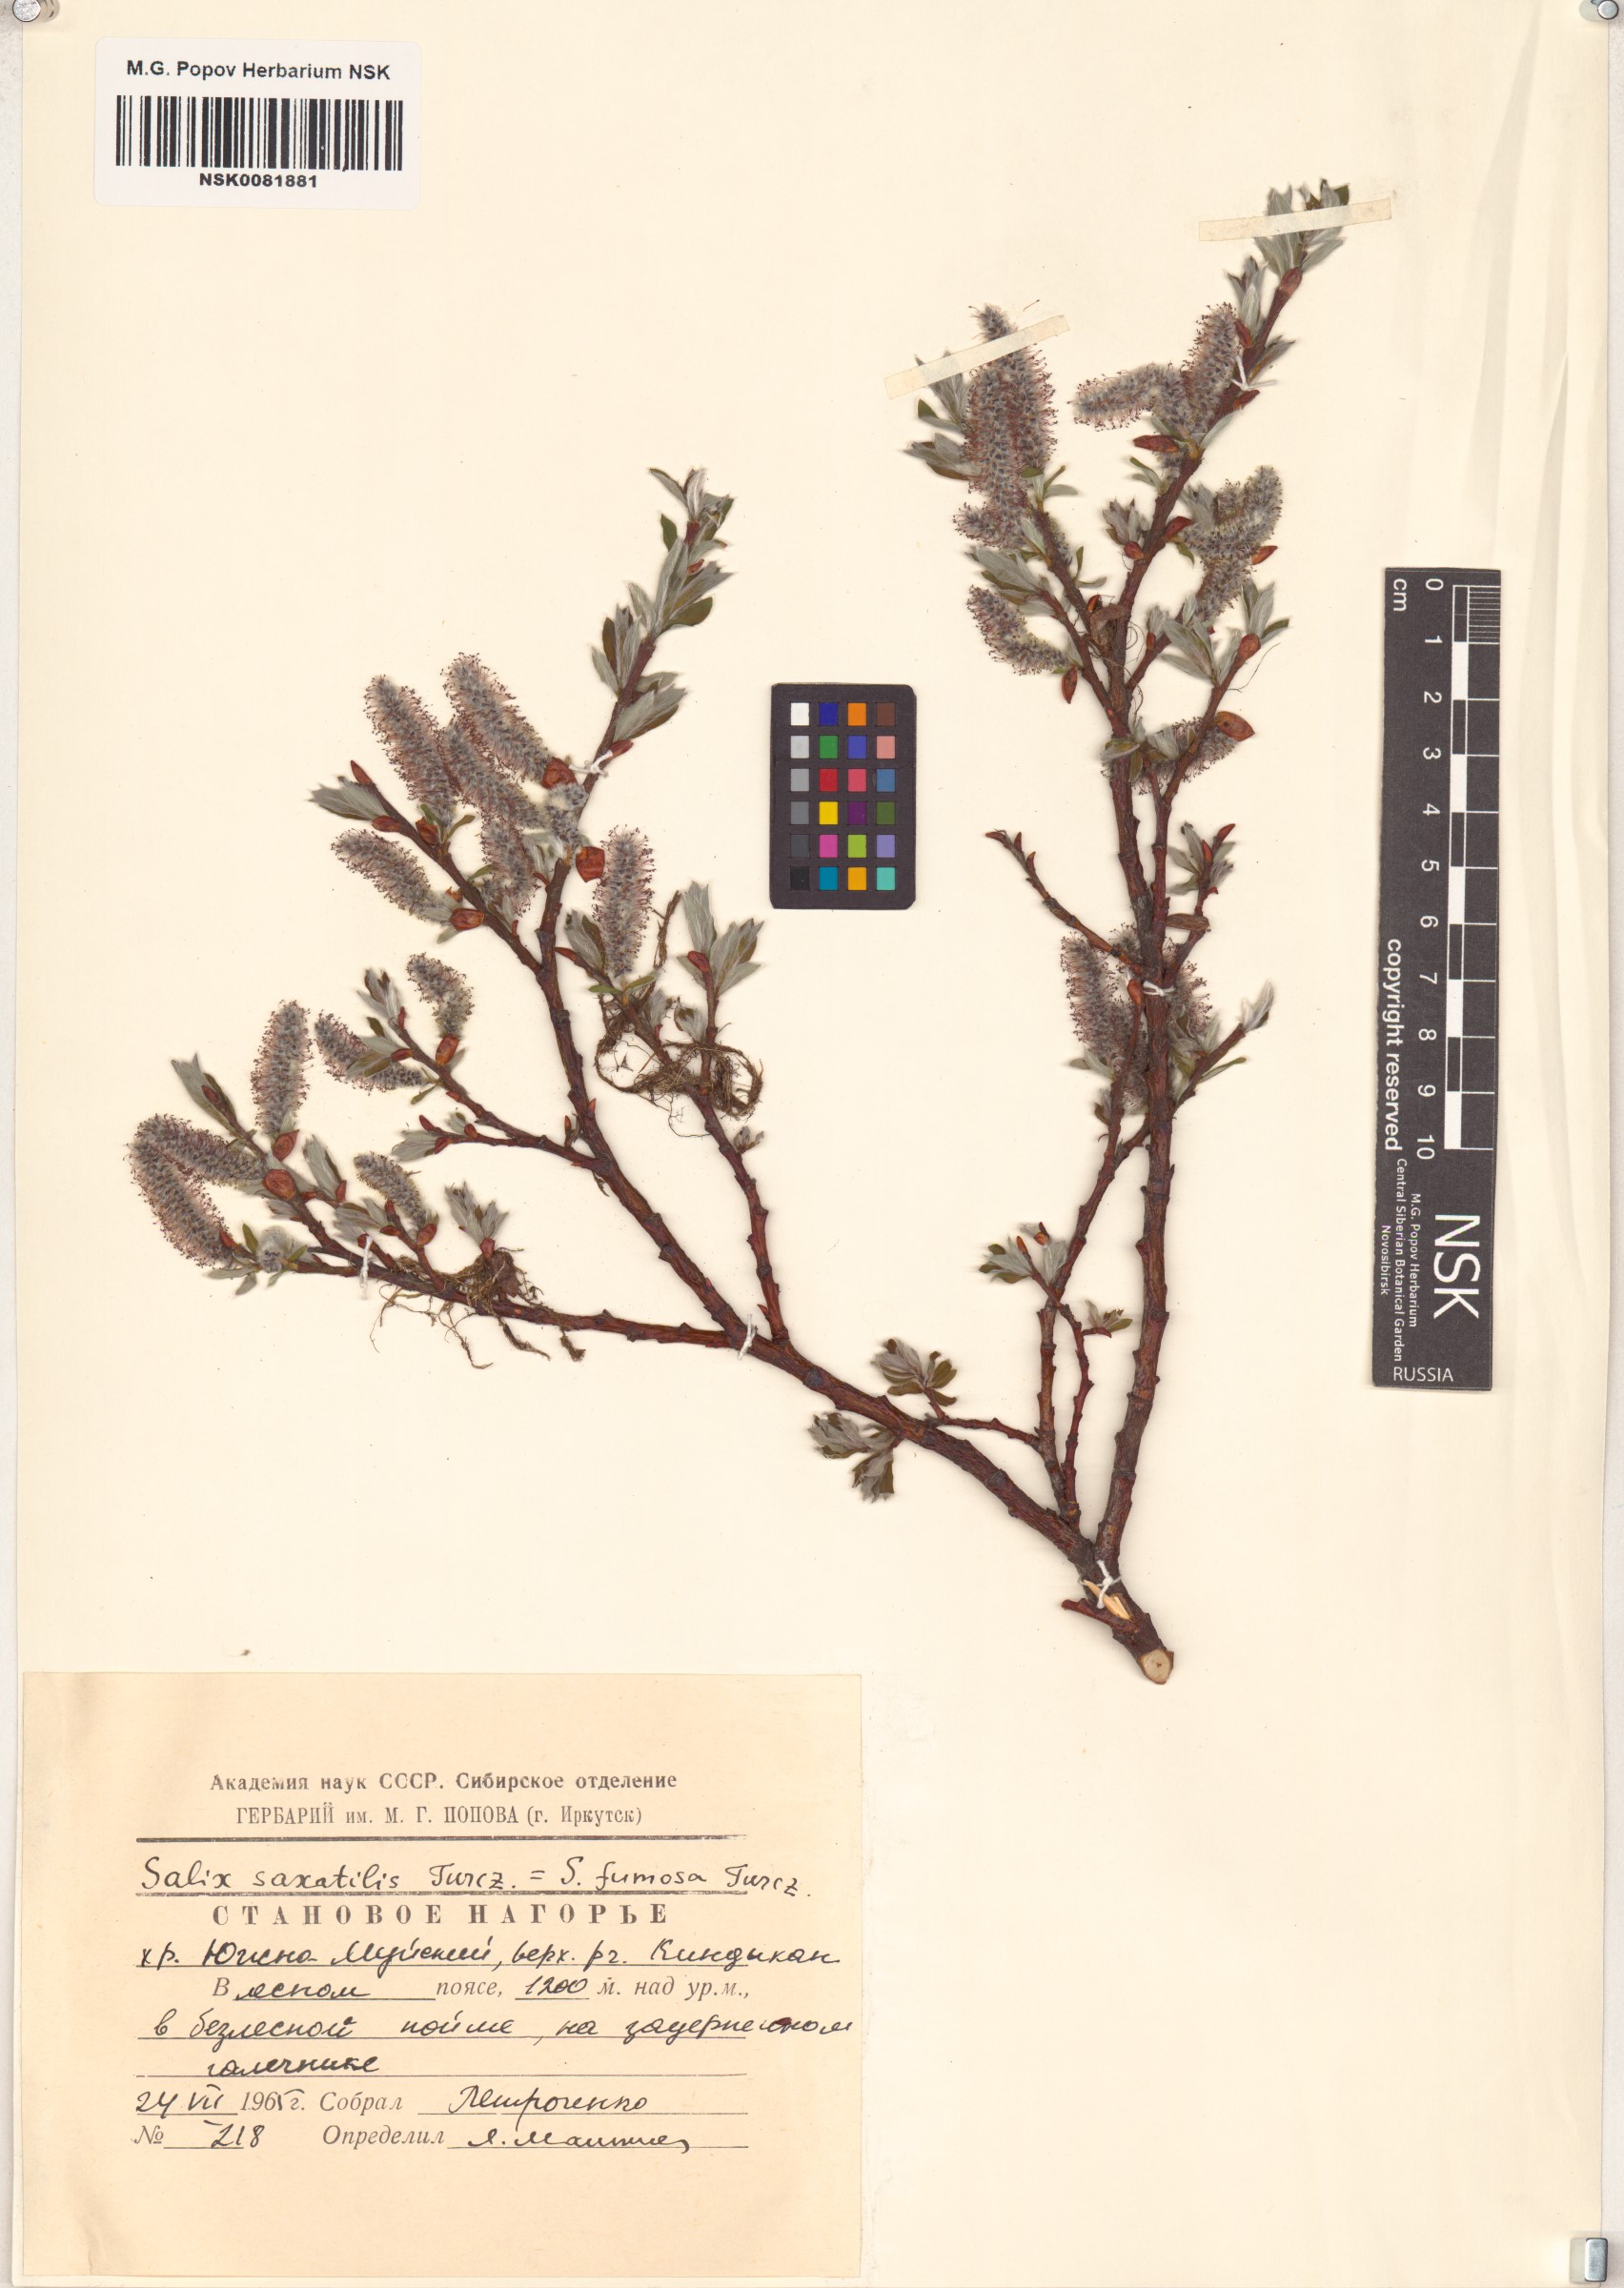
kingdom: Plantae
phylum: Tracheophyta
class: Magnoliopsida
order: Malpighiales
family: Salicaceae
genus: Salix
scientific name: Salix saxatilis
